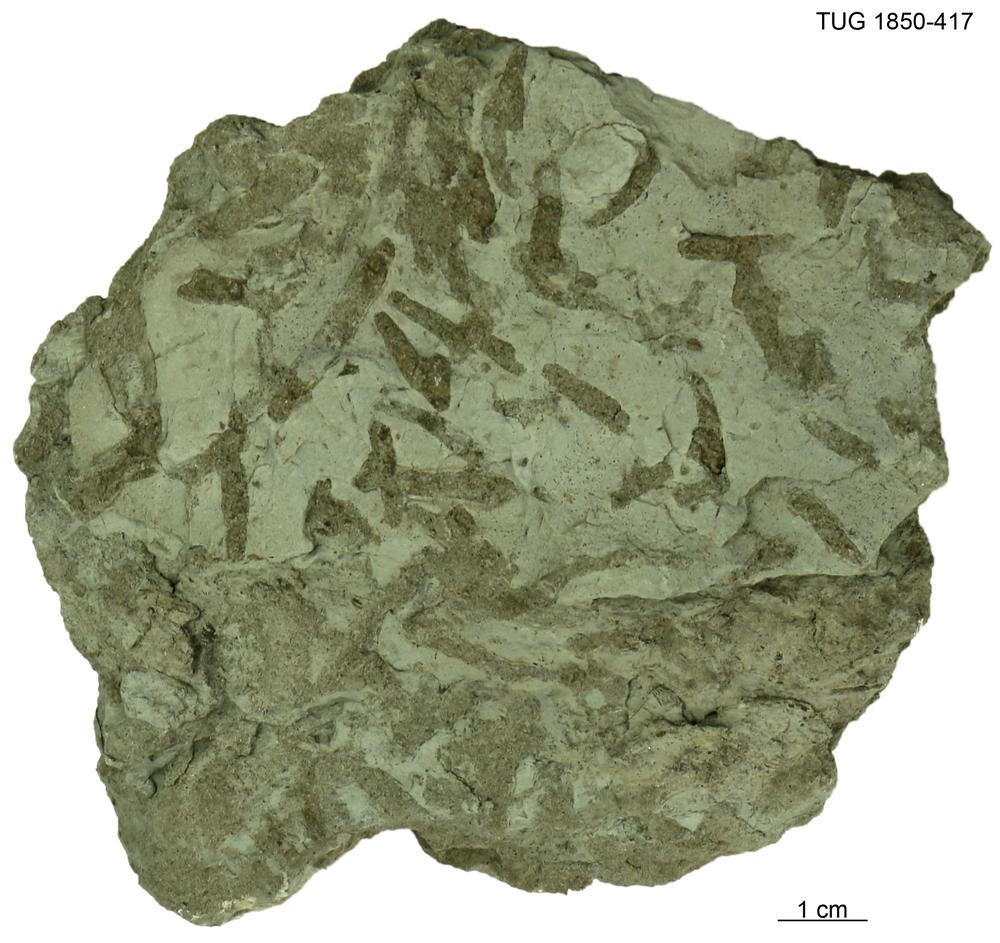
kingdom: Animalia
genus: Chondrites
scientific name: Chondrites
